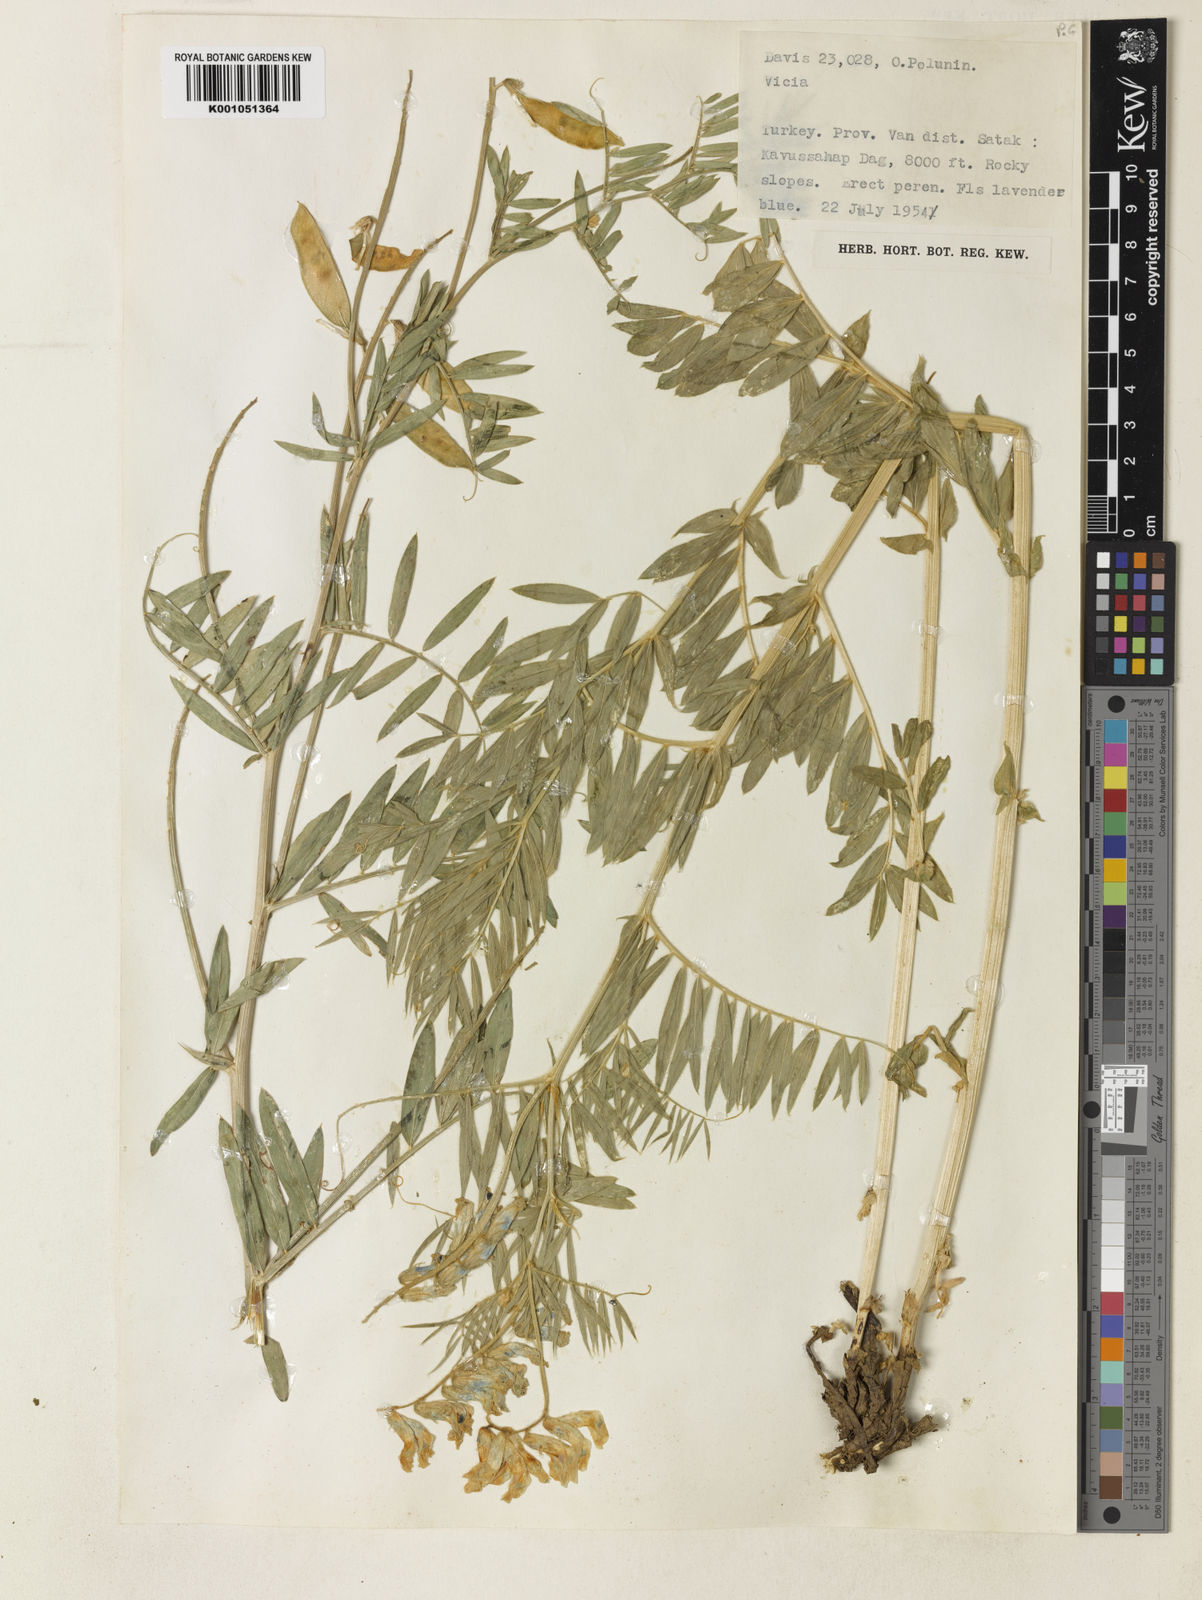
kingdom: Plantae
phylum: Tracheophyta
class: Magnoliopsida
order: Fabales
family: Fabaceae
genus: Vicia
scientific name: Vicia dumetorum
